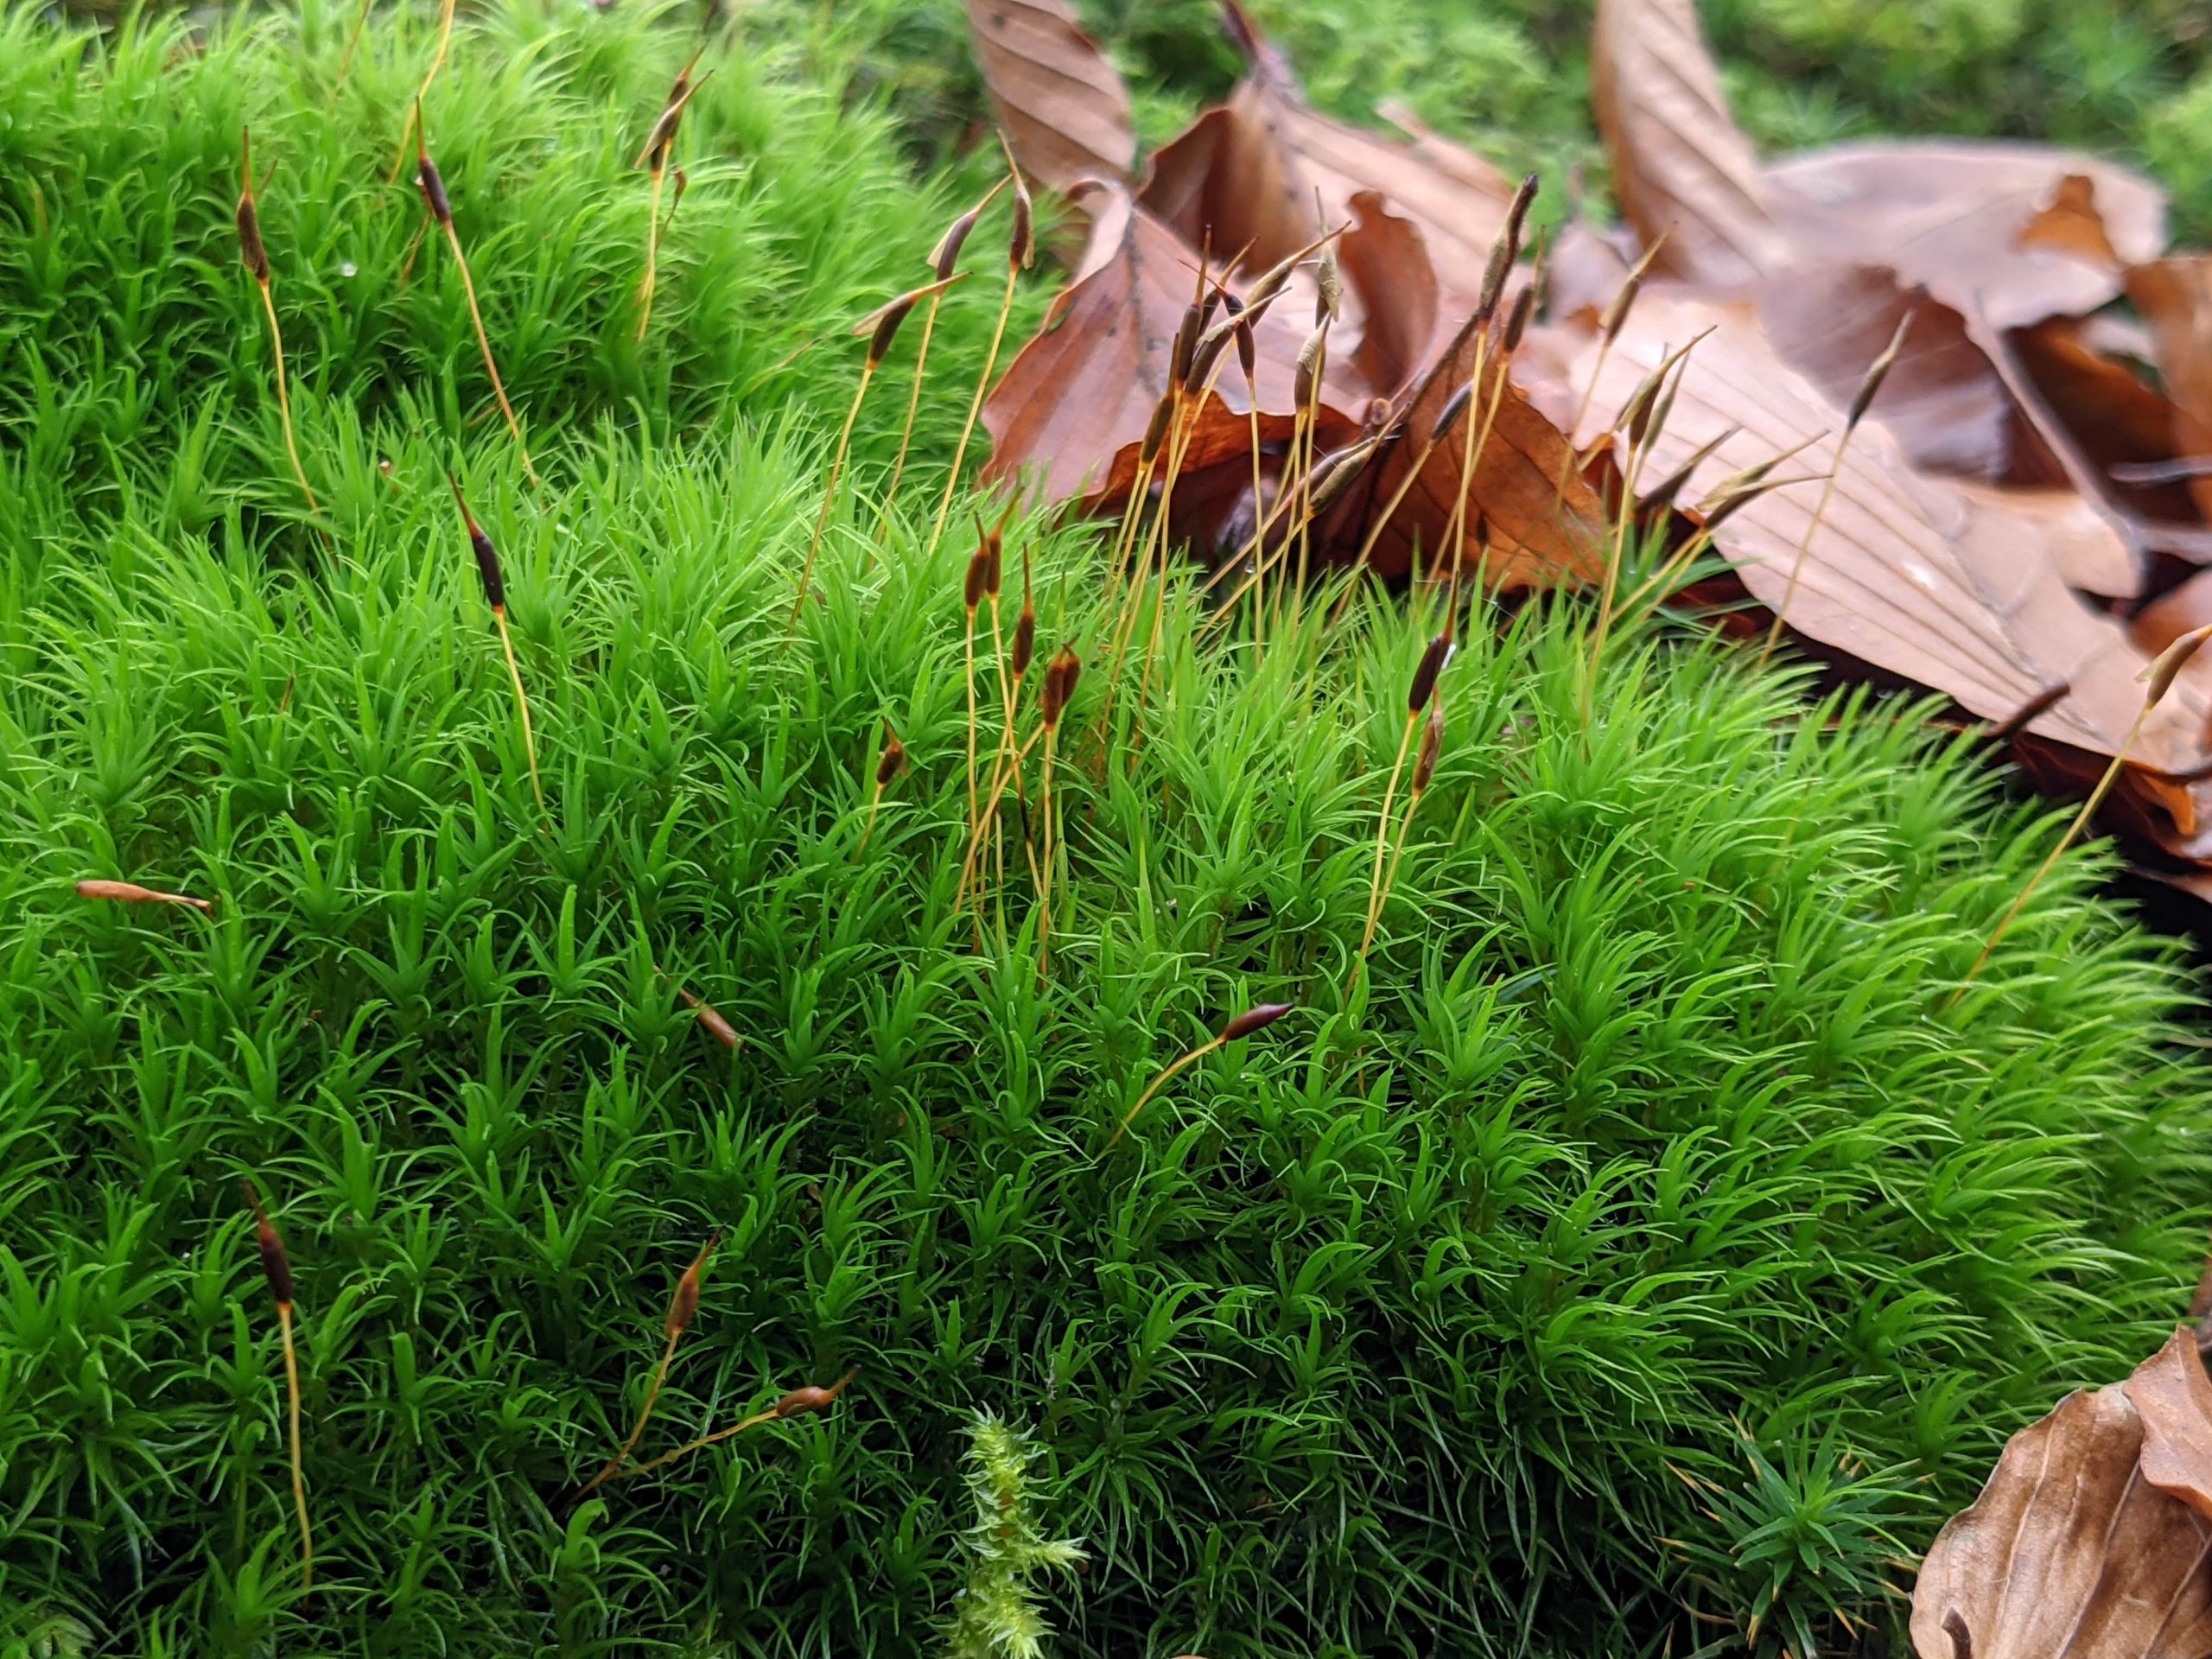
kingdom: Plantae
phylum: Bryophyta
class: Bryopsida
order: Dicranales
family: Dicranaceae
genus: Dicranum
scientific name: Dicranum scoparium
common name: Almindelig kløvtand
